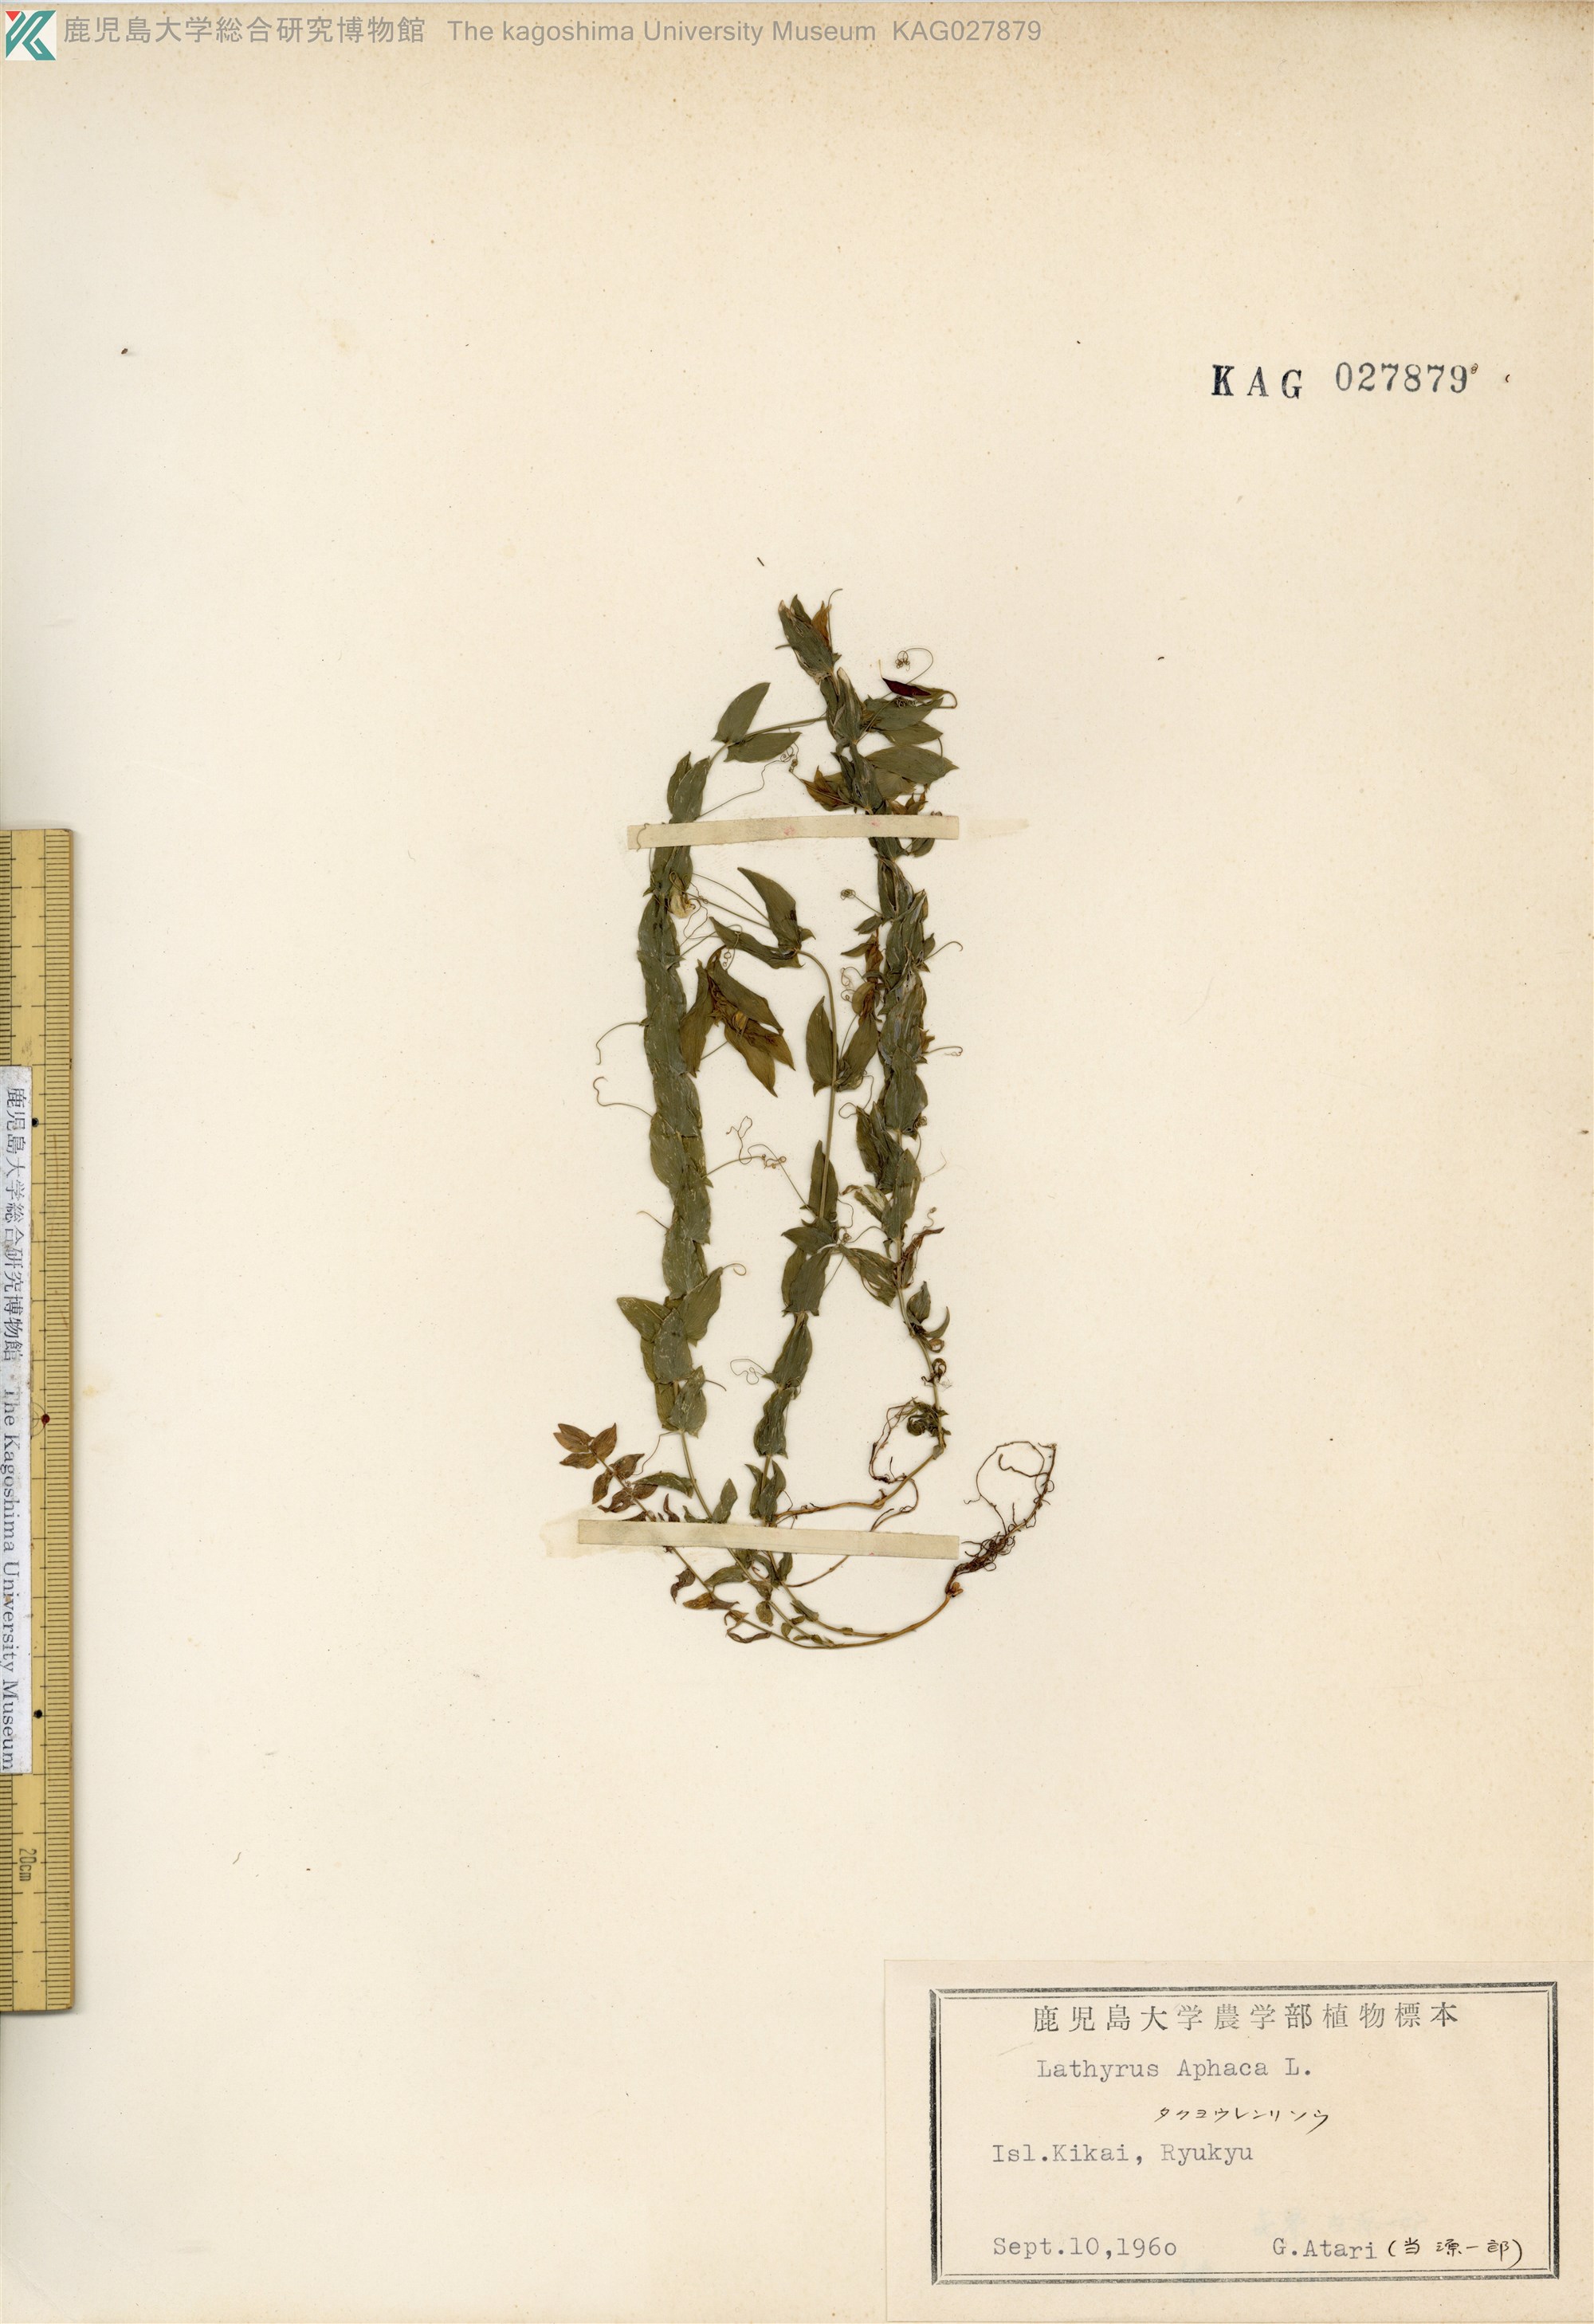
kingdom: Plantae
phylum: Tracheophyta
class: Magnoliopsida
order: Fabales
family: Fabaceae
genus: Lathyrus
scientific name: Lathyrus aphaca
